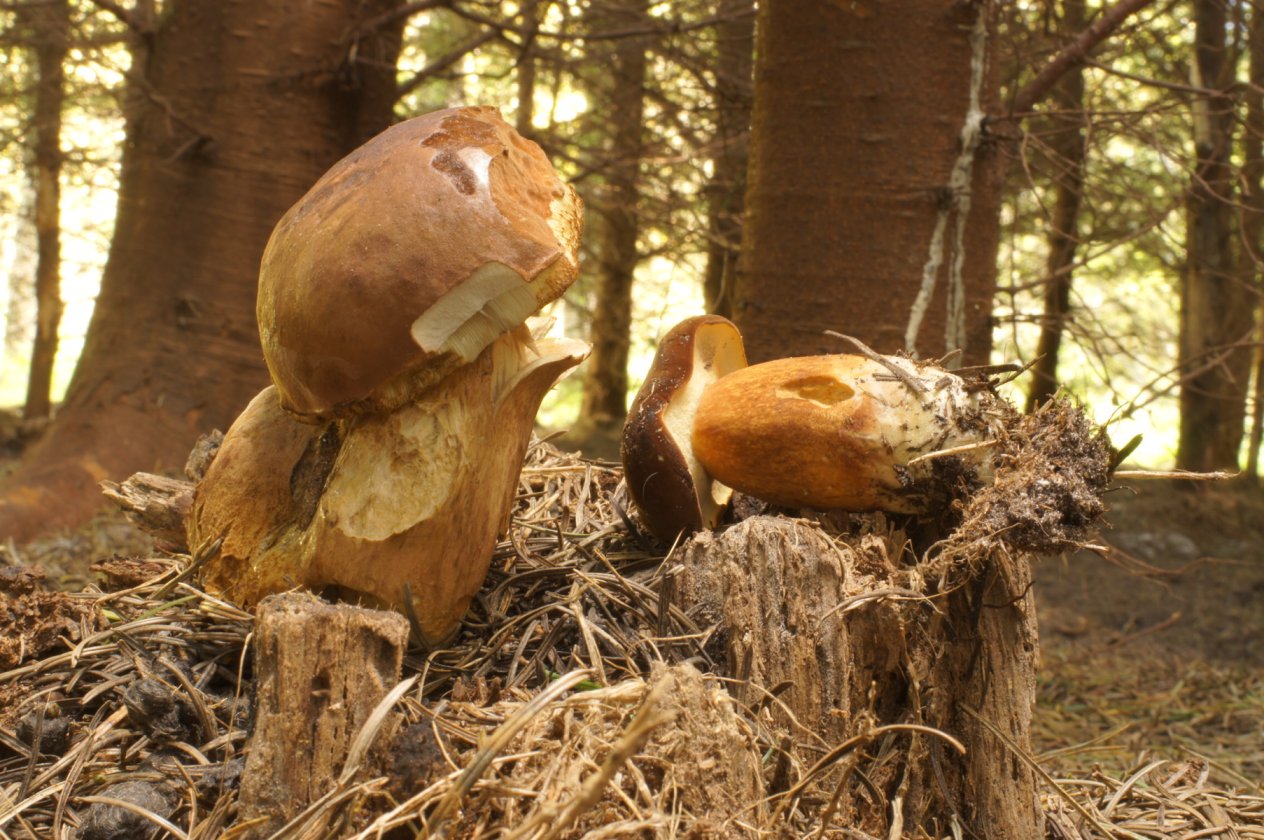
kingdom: Fungi
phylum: Basidiomycota
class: Agaricomycetes
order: Boletales
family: Boletaceae
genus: Imleria
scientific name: Imleria badia
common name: brunstokket rørhat
